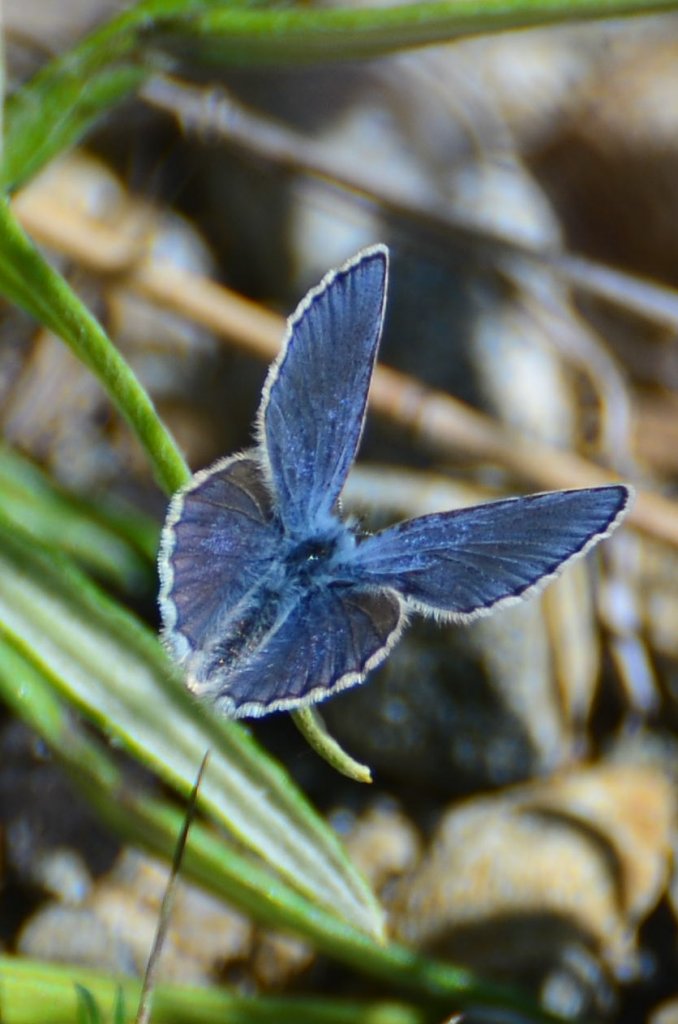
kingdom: Animalia
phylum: Arthropoda
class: Insecta
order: Lepidoptera
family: Lycaenidae
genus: Lycaeides
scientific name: Lycaeides anna
